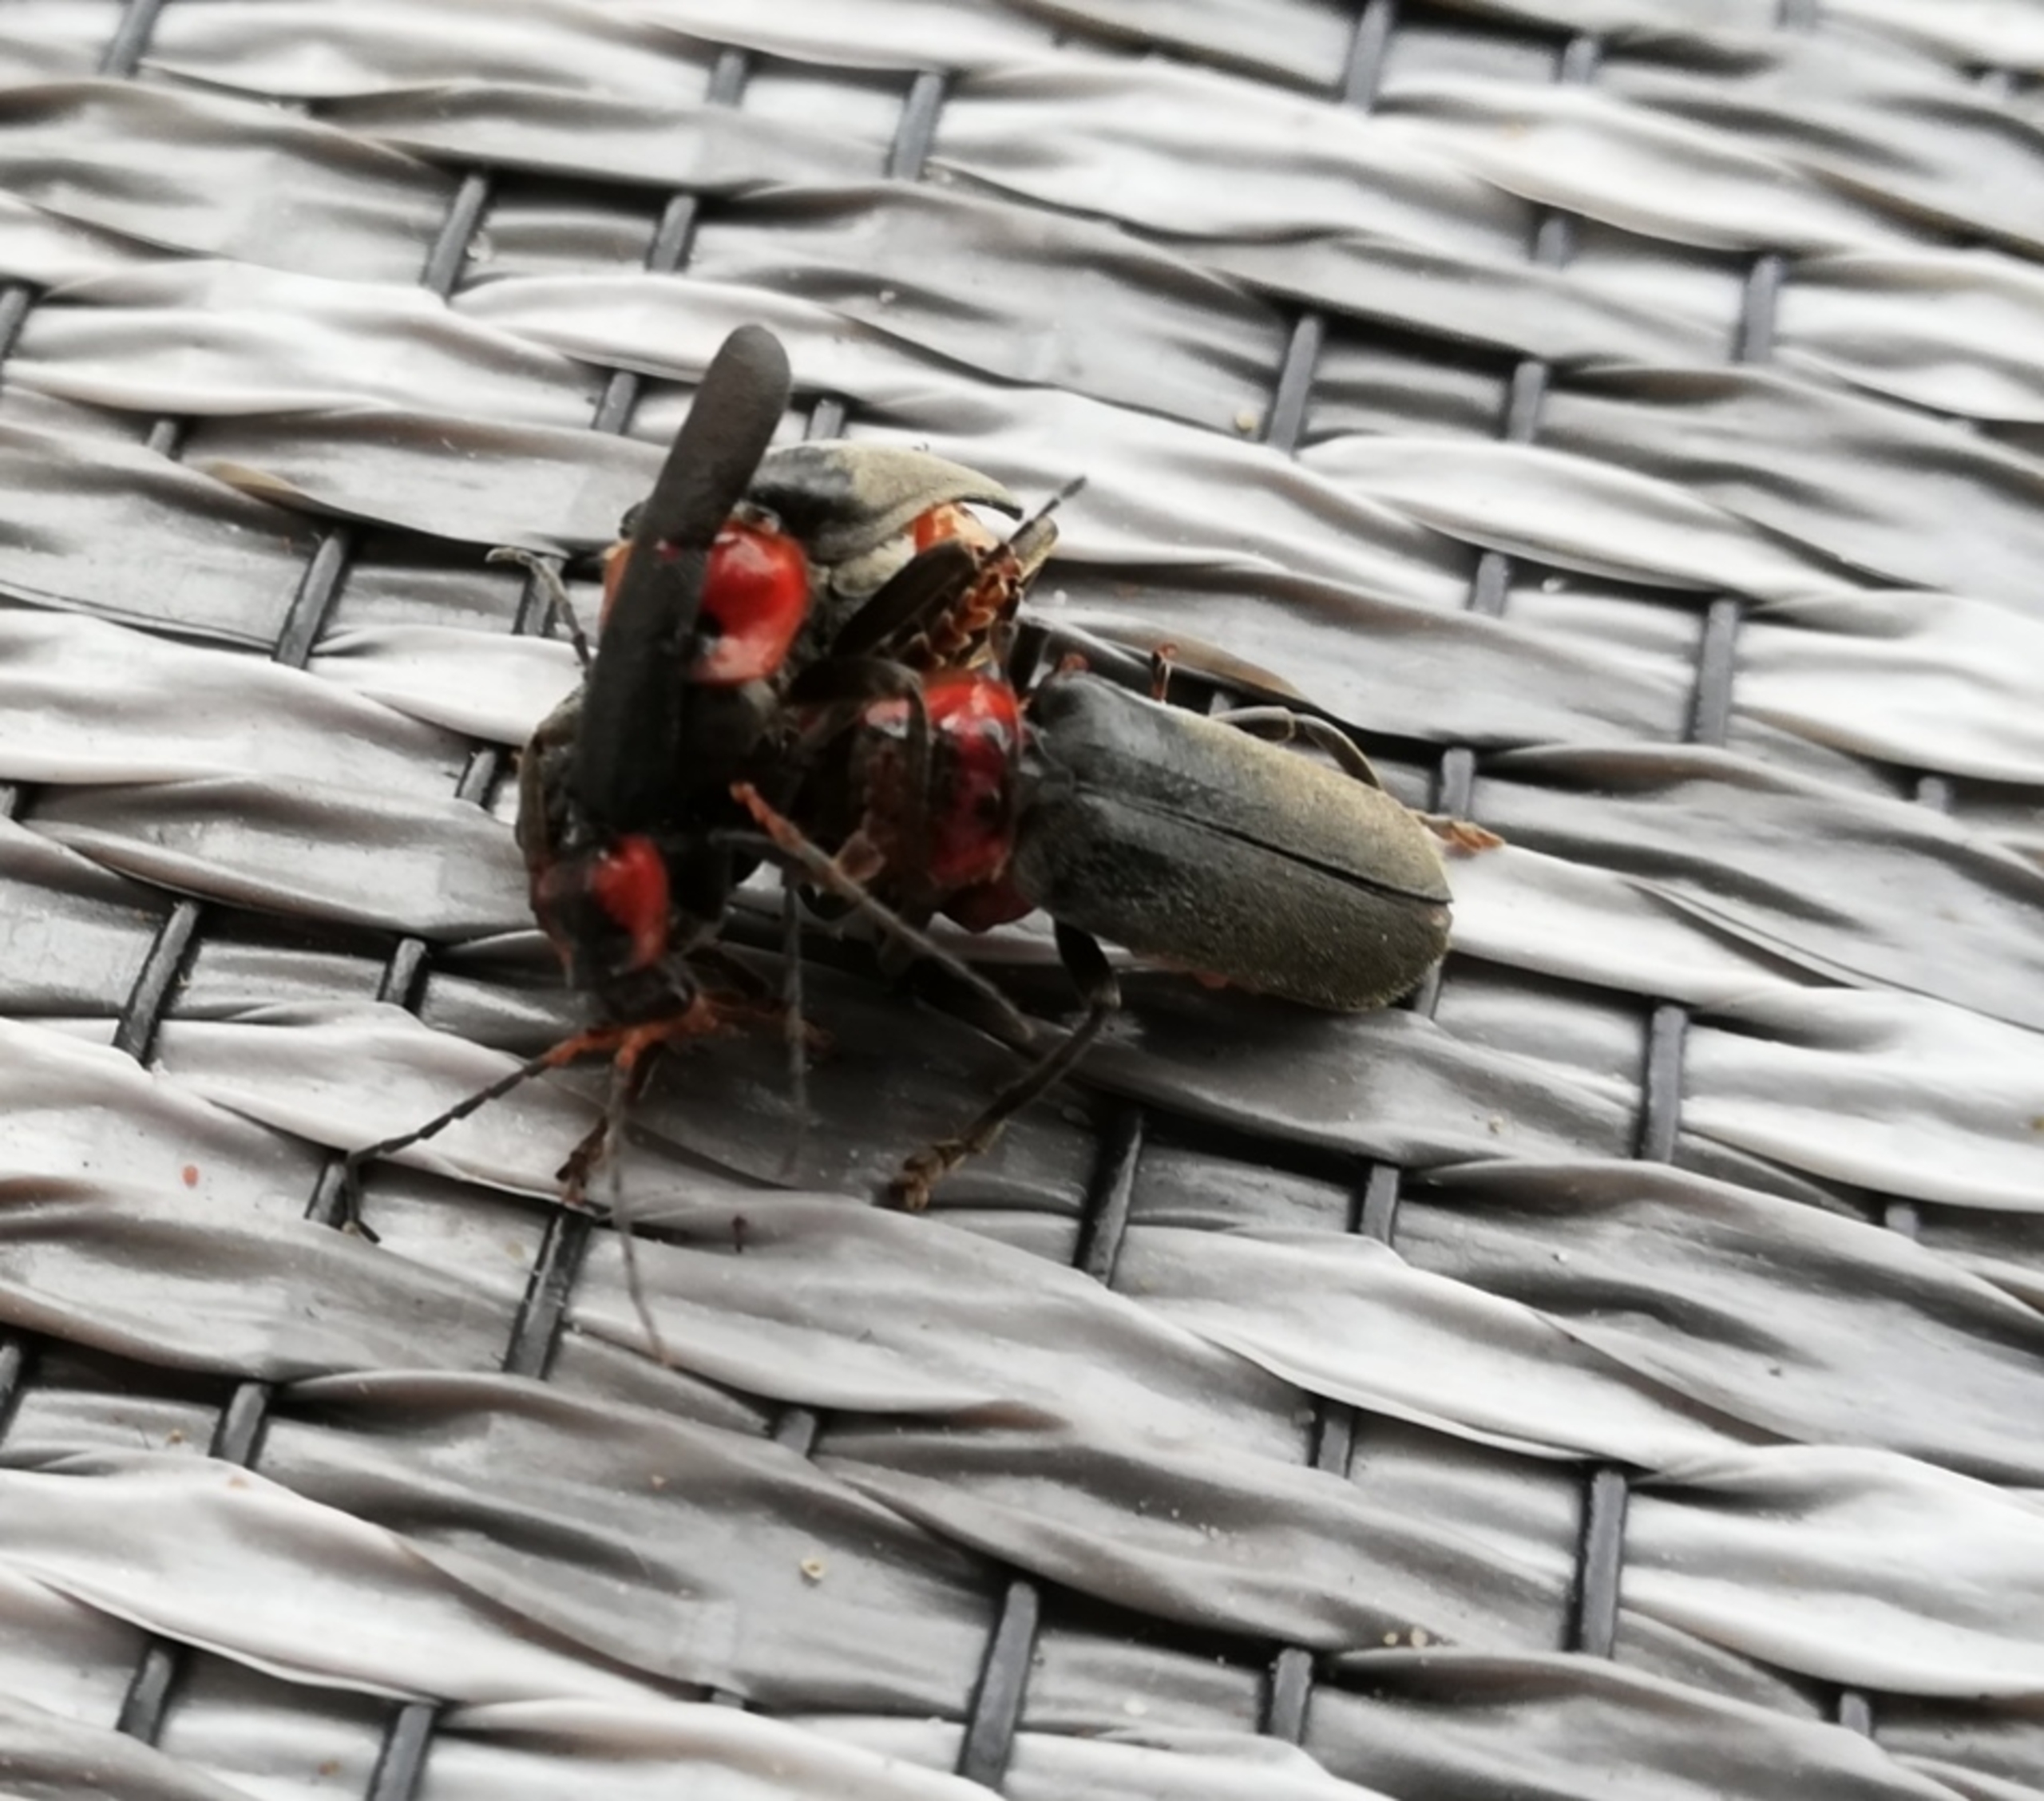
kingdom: Animalia
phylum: Arthropoda
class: Insecta
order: Coleoptera
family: Cantharidae
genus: Cantharis
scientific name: Cantharis fusca
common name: Stor blødvinge
